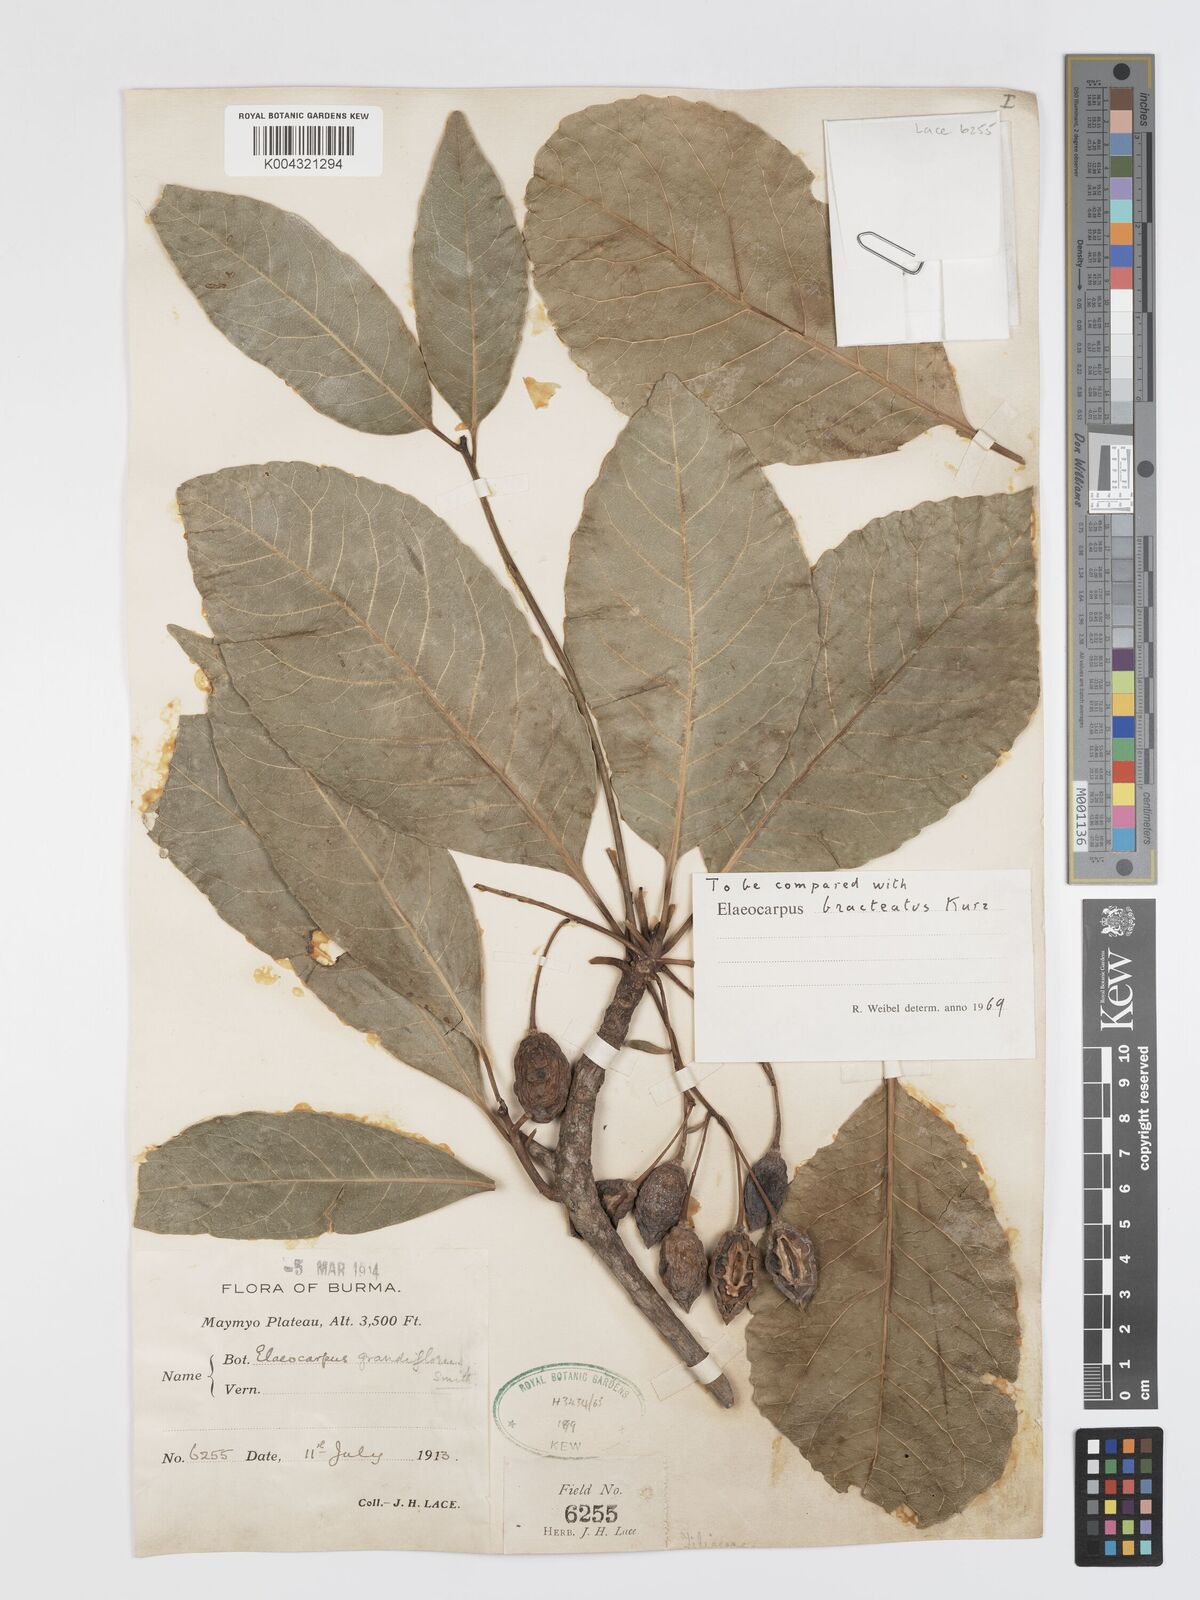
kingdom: Plantae
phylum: Tracheophyta
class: Magnoliopsida
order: Oxalidales
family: Elaeocarpaceae
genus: Elaeocarpus
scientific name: Elaeocarpus bracteatus
